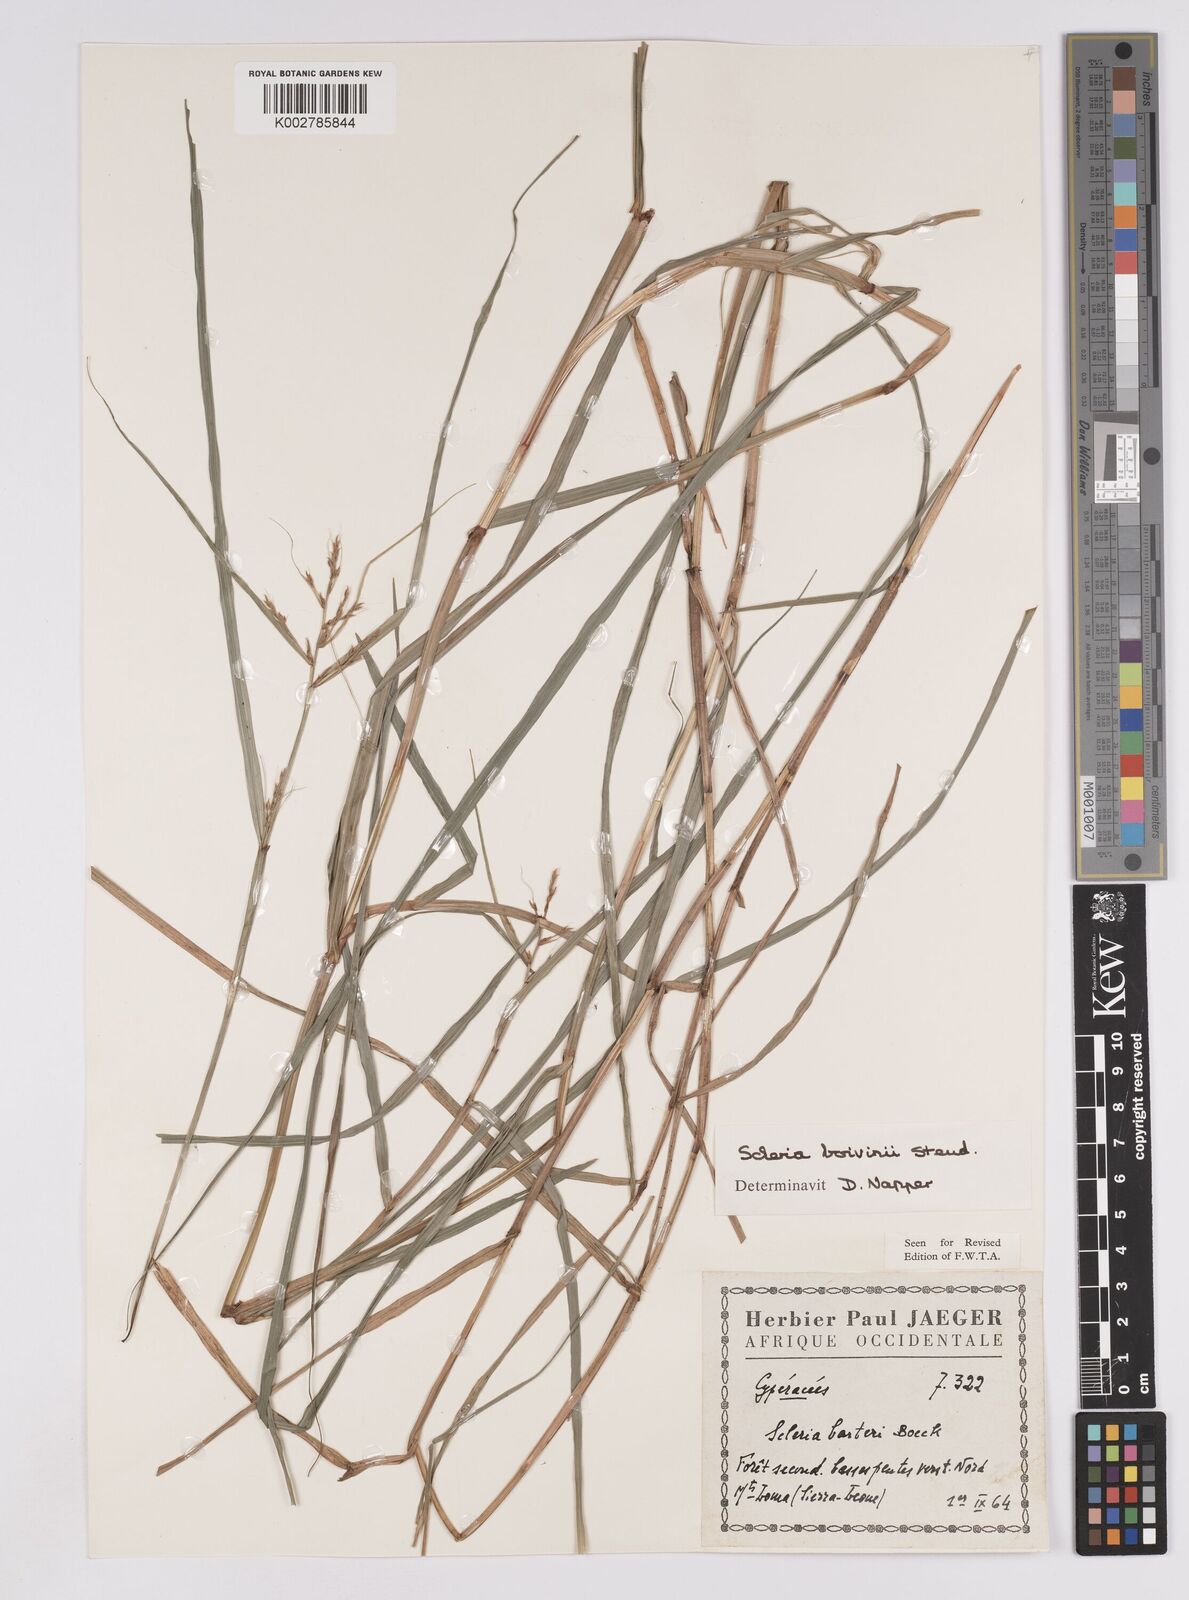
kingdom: Plantae
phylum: Tracheophyta
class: Liliopsida
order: Poales
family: Cyperaceae
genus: Scleria
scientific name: Scleria boivinii
